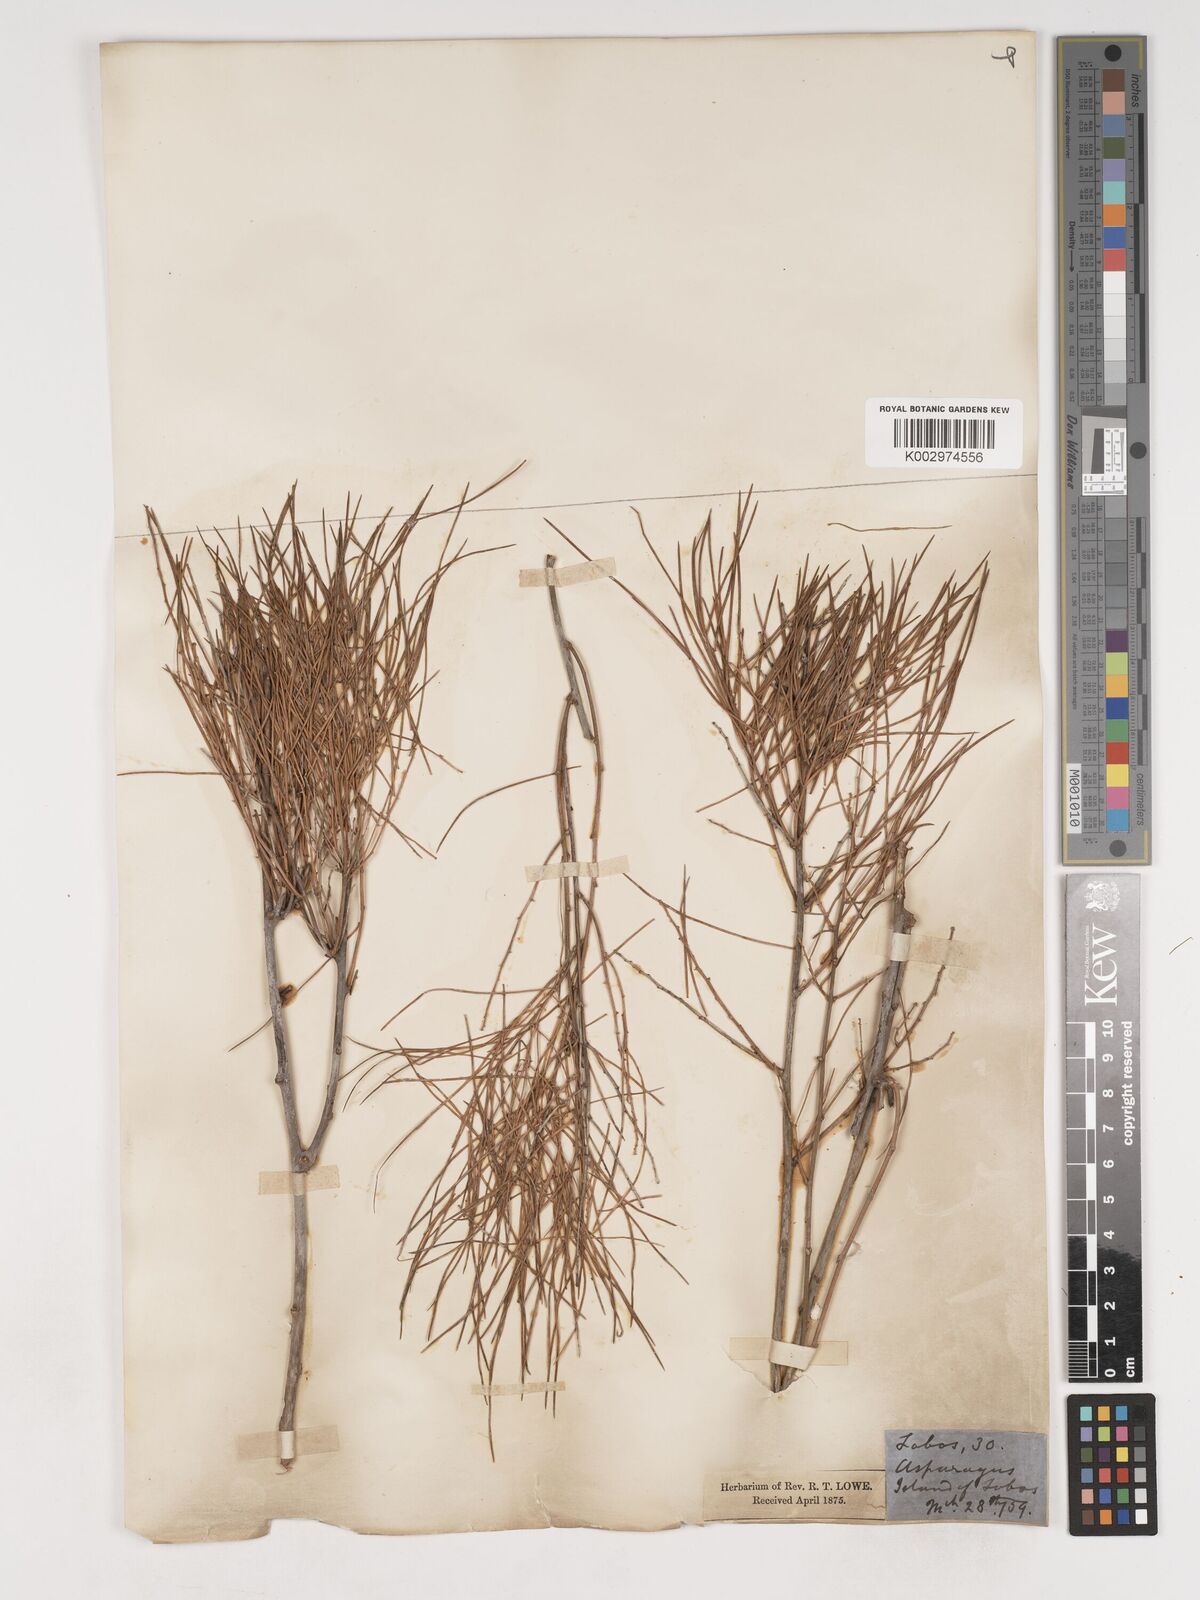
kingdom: Plantae
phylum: Tracheophyta
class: Liliopsida
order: Asparagales
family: Asparagaceae
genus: Asparagus
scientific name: Asparagus arborescens
